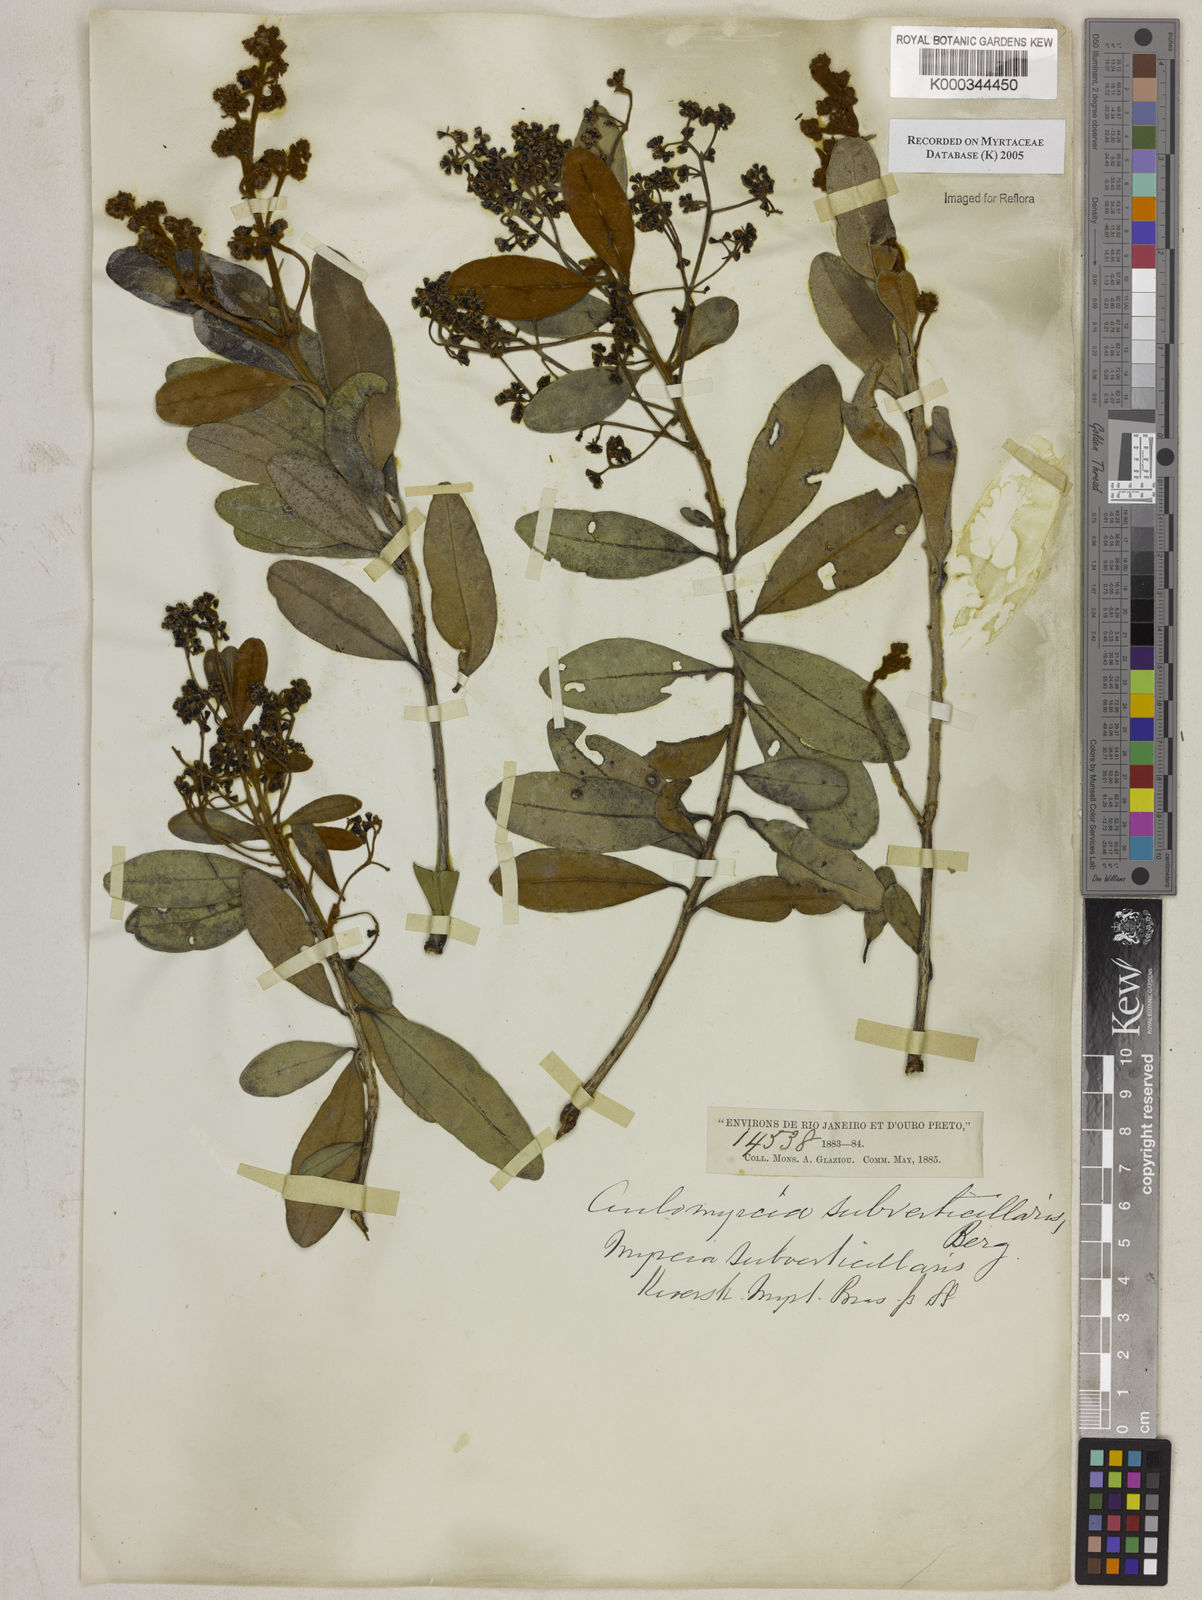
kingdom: Plantae
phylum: Tracheophyta
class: Magnoliopsida
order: Myrtales
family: Myrtaceae
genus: Myrcia
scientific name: Myrcia
